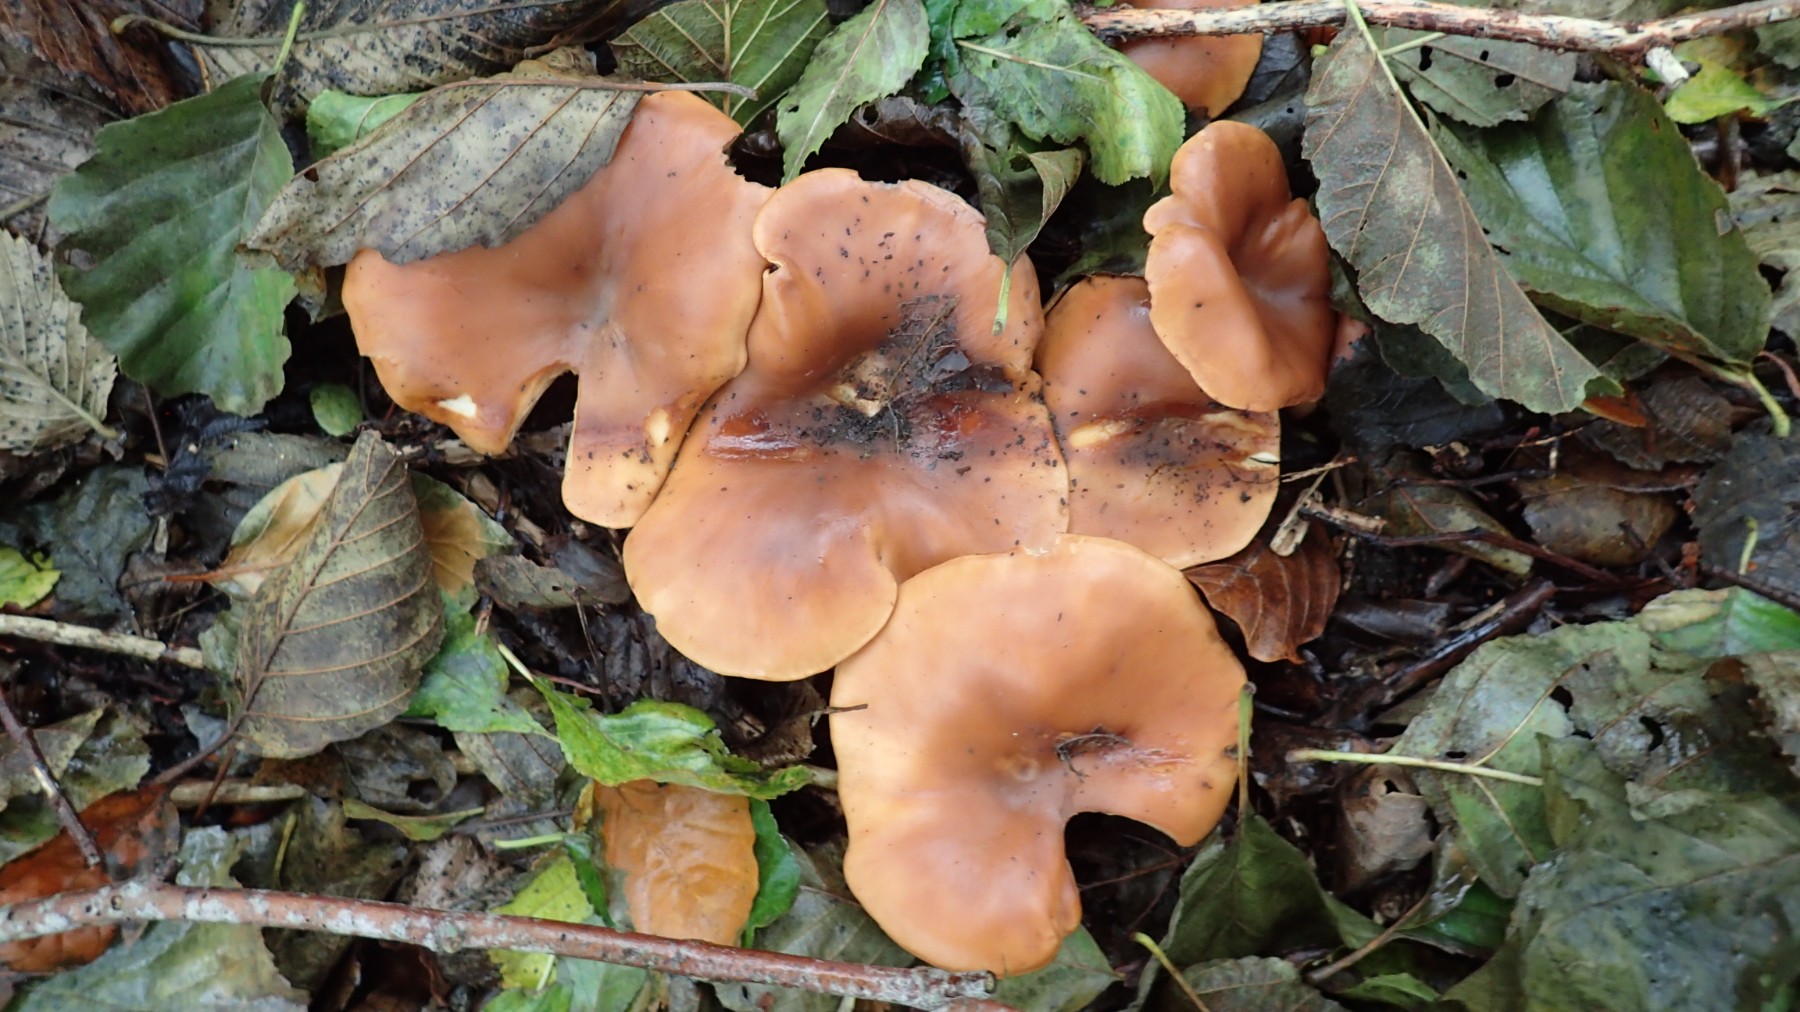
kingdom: Fungi
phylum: Basidiomycota
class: Agaricomycetes
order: Agaricales
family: Tricholomataceae
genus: Paralepista
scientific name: Paralepista flaccida
